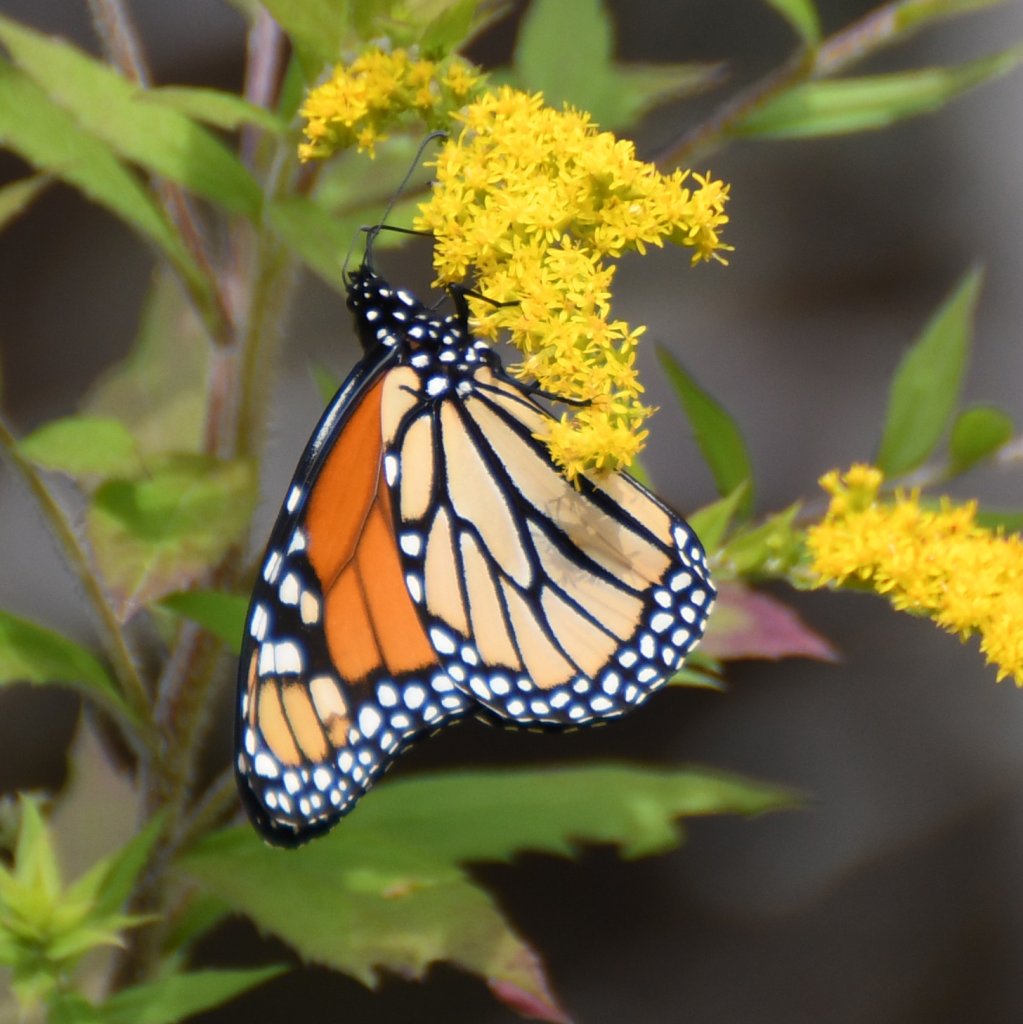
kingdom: Animalia
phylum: Arthropoda
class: Insecta
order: Lepidoptera
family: Nymphalidae
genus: Danaus
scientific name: Danaus plexippus
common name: Monarch
